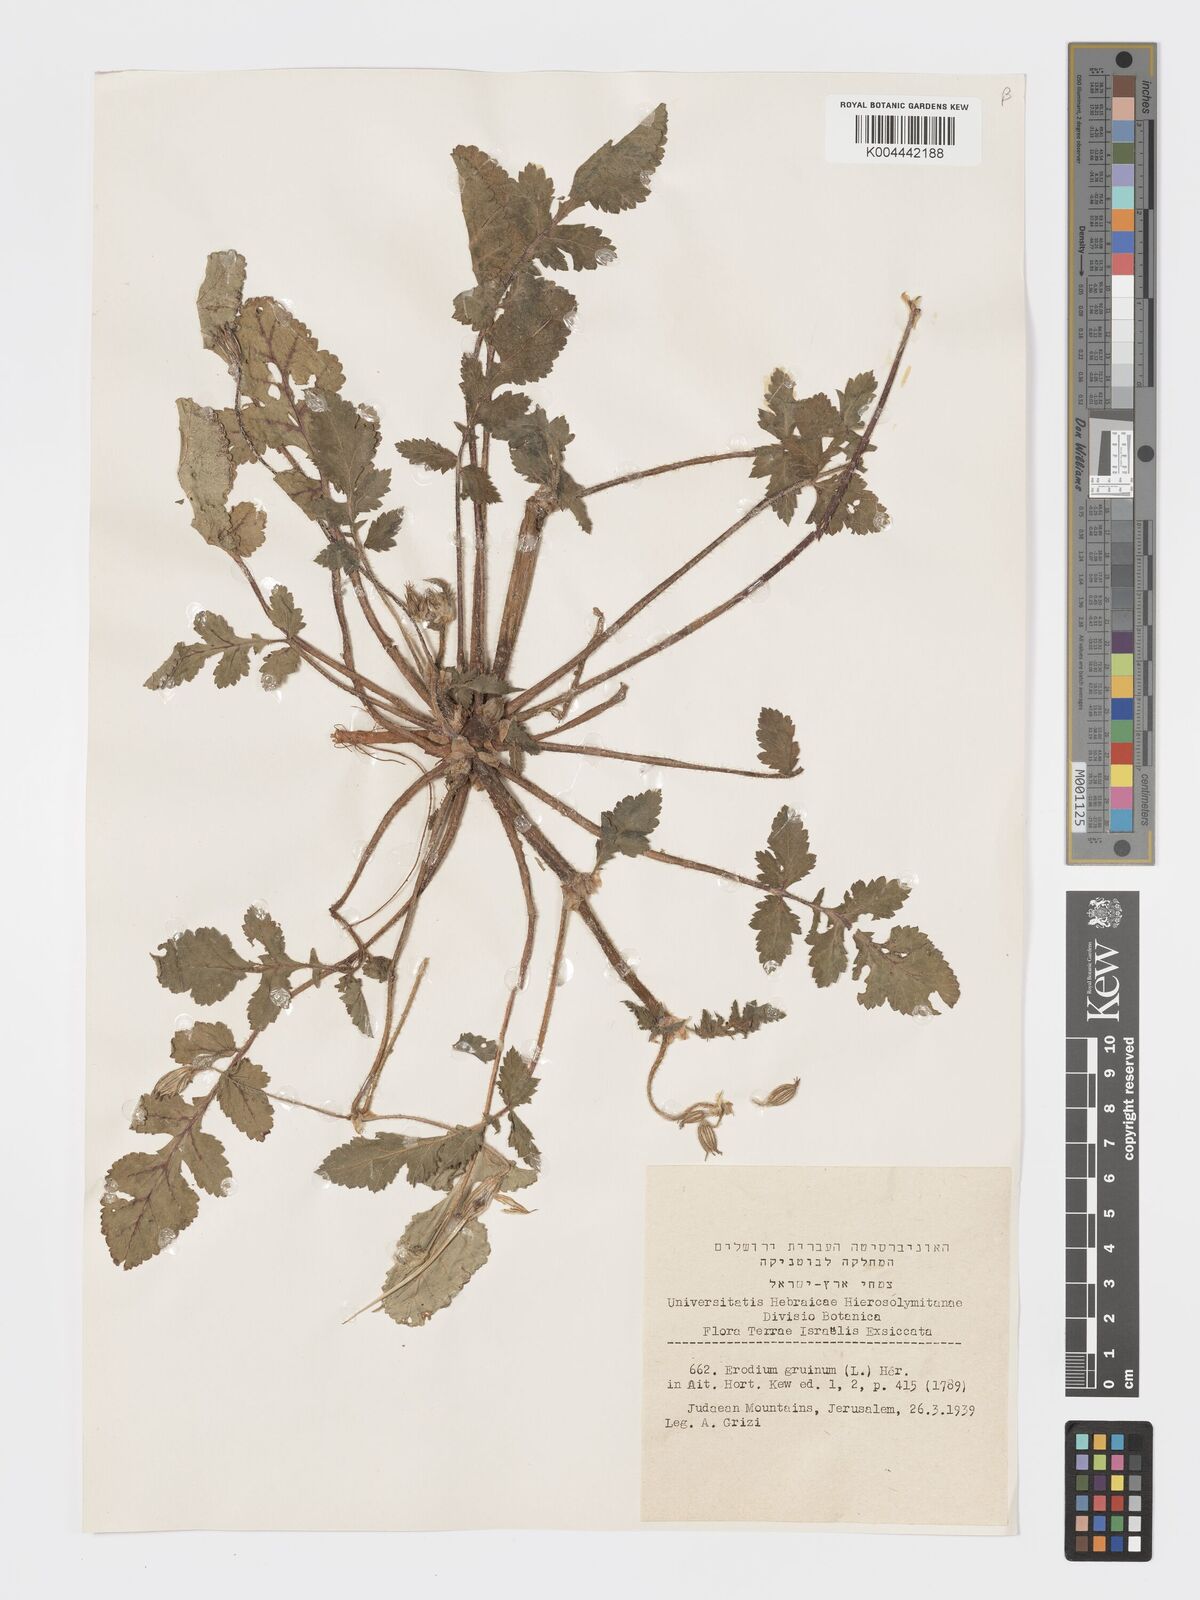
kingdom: Plantae
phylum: Tracheophyta
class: Magnoliopsida
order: Geraniales
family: Geraniaceae
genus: Erodium
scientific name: Erodium gruinum
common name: Iranian stork's bill
